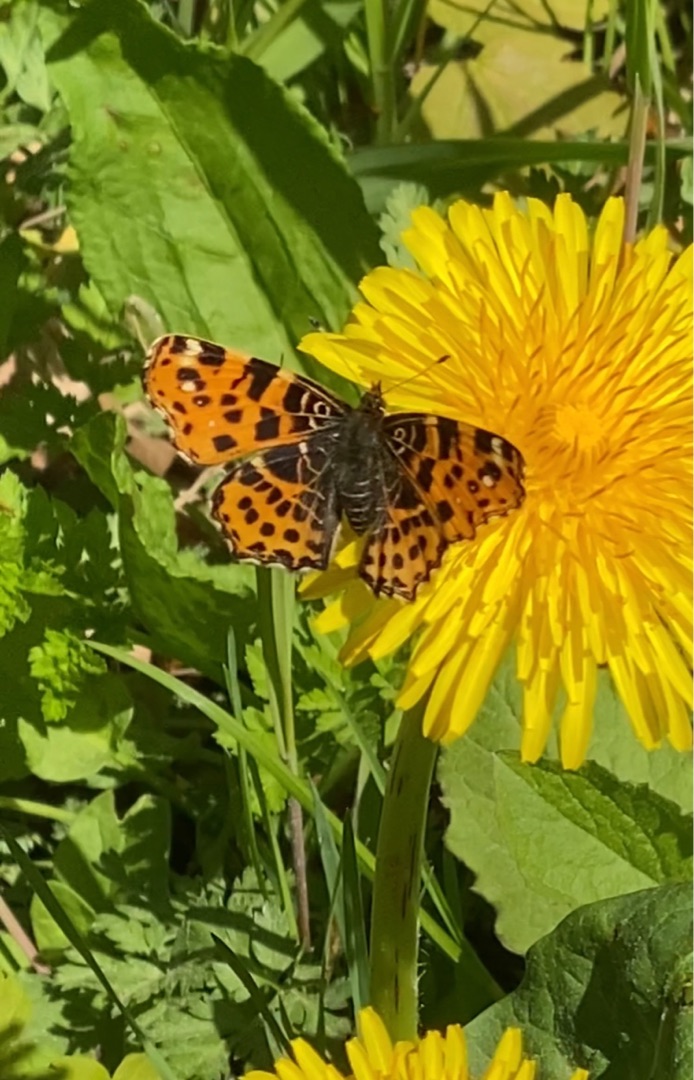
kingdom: Animalia
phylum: Arthropoda
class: Insecta
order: Lepidoptera
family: Nymphalidae
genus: Araschnia
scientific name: Araschnia levana
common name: Nældesommerfugl
